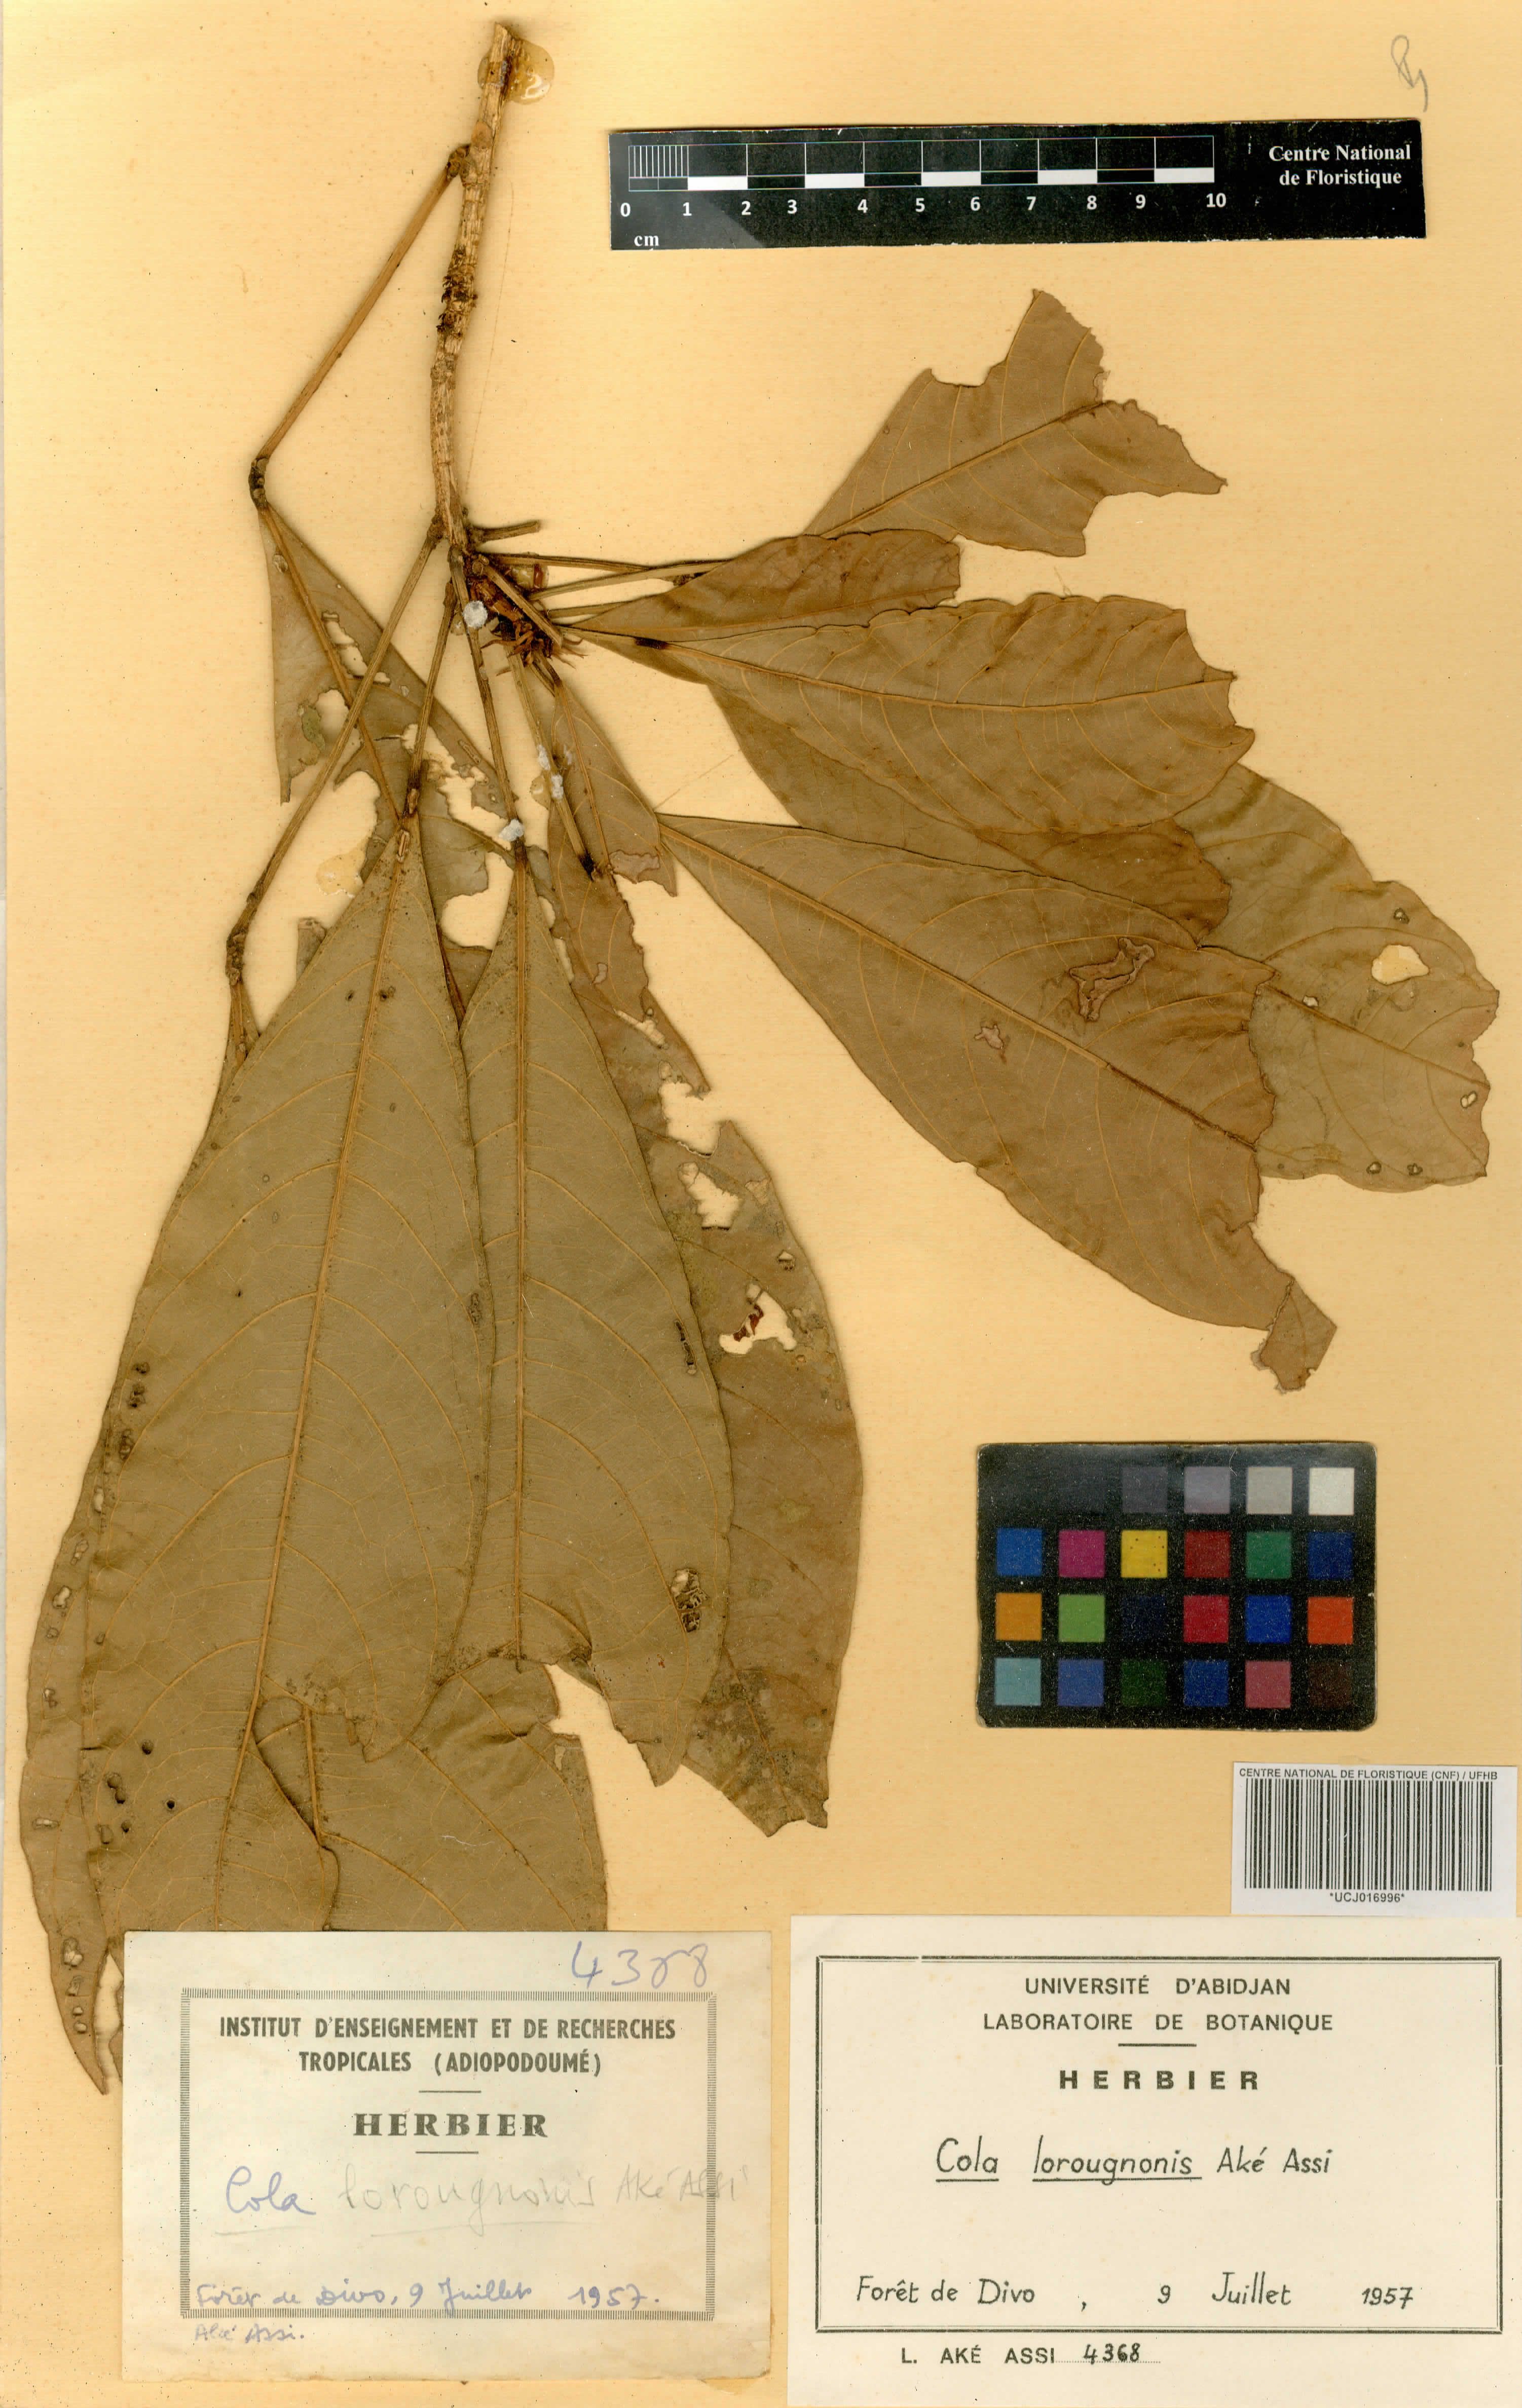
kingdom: Plantae
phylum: Tracheophyta
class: Magnoliopsida
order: Malvales
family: Malvaceae
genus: Cola
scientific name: Cola lorougnonis
